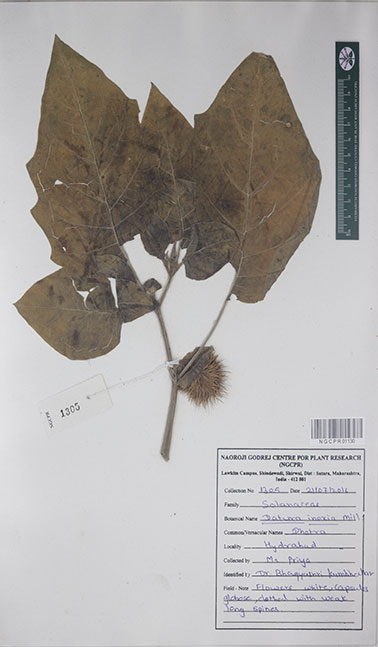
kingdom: Plantae
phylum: Tracheophyta
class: Magnoliopsida
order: Solanales
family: Solanaceae
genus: Datura
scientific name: Datura innoxia
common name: Downy thorn-apple
